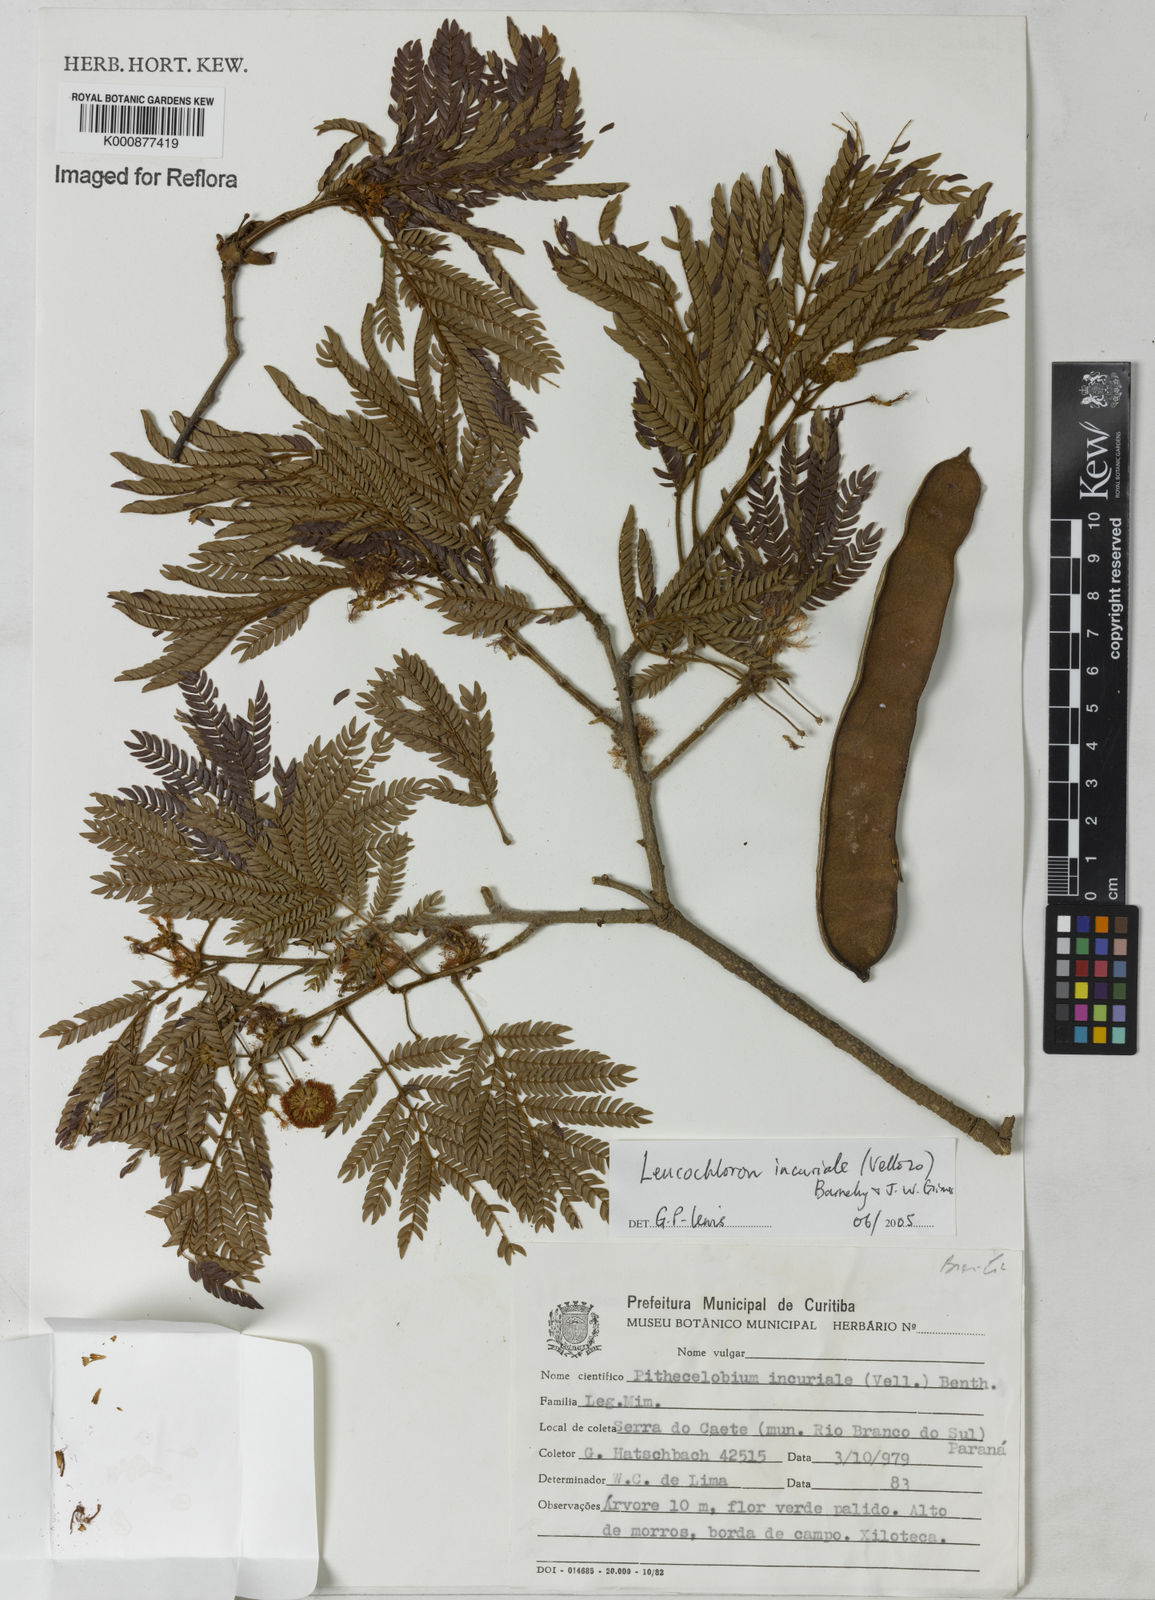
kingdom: Plantae
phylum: Tracheophyta
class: Magnoliopsida
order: Fabales
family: Fabaceae
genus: Leucochloron
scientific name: Leucochloron incuriale
